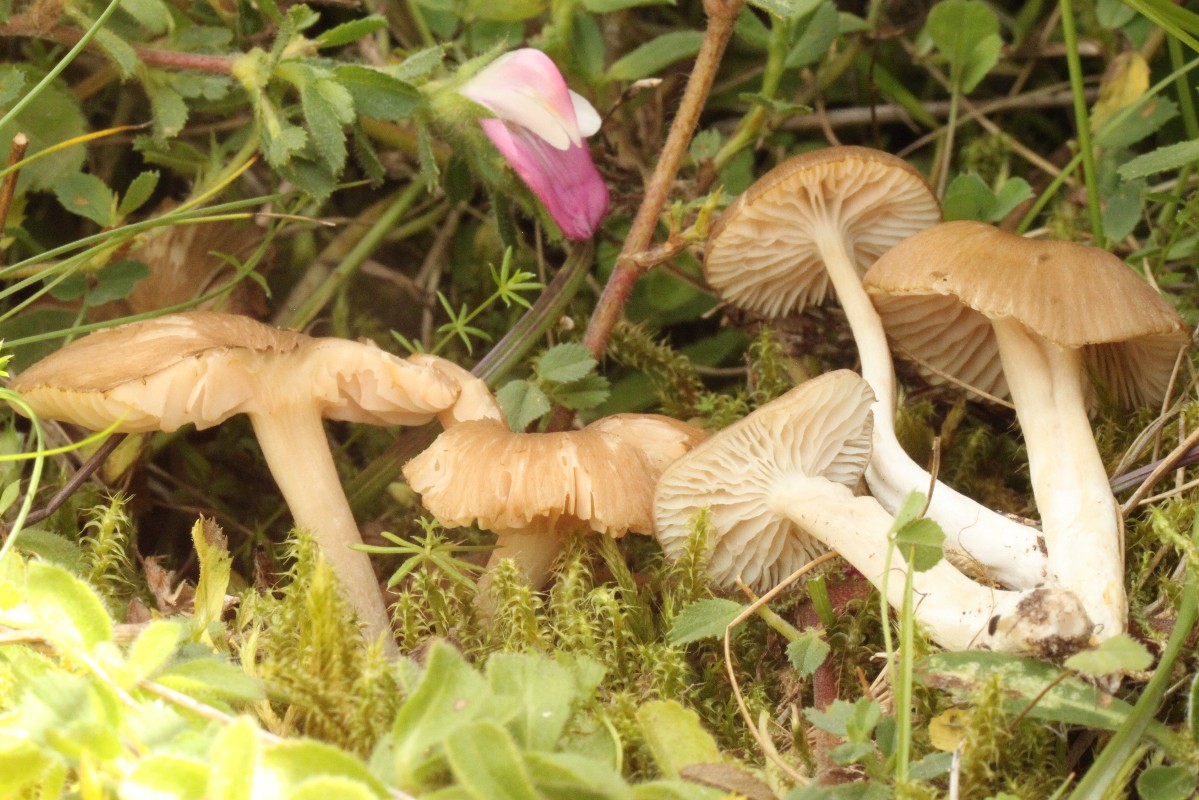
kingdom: Fungi
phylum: Basidiomycota
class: Agaricomycetes
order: Agaricales
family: Entolomataceae
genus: Entoloma
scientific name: Entoloma pseudoturci
